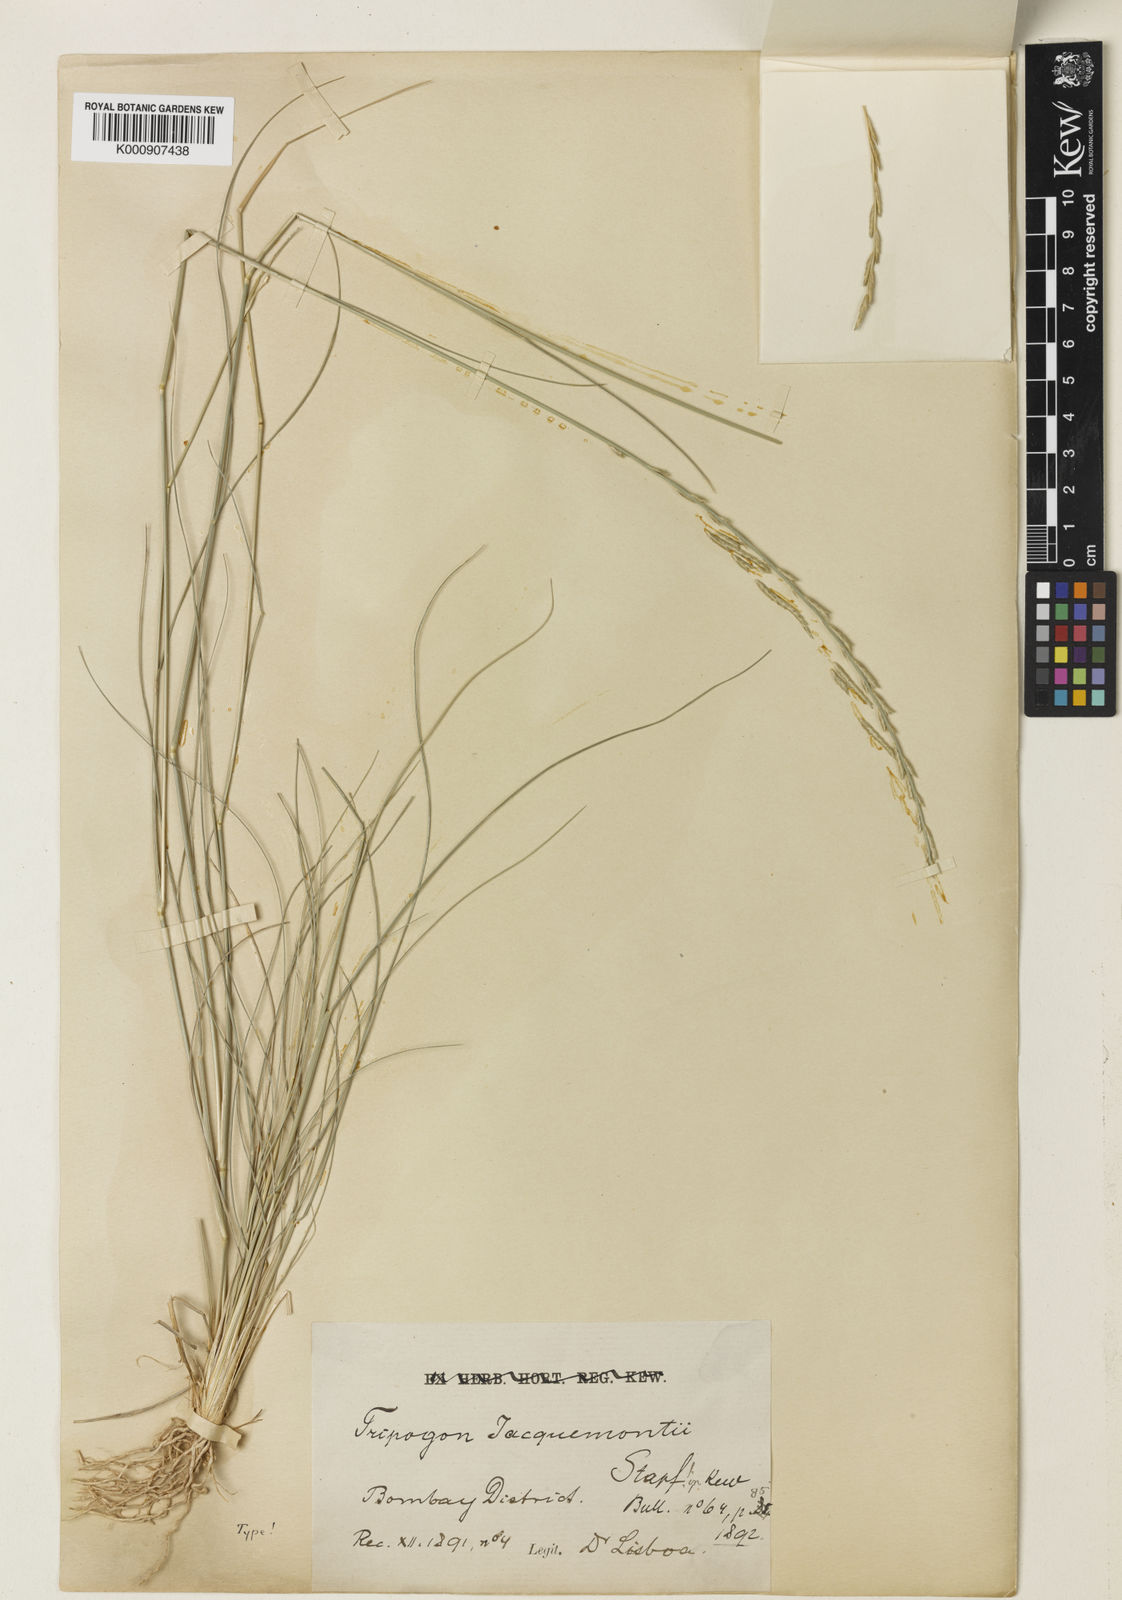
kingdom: Plantae
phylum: Tracheophyta
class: Liliopsida
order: Poales
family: Poaceae
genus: Tripogon
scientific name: Tripogon jacquemontii
